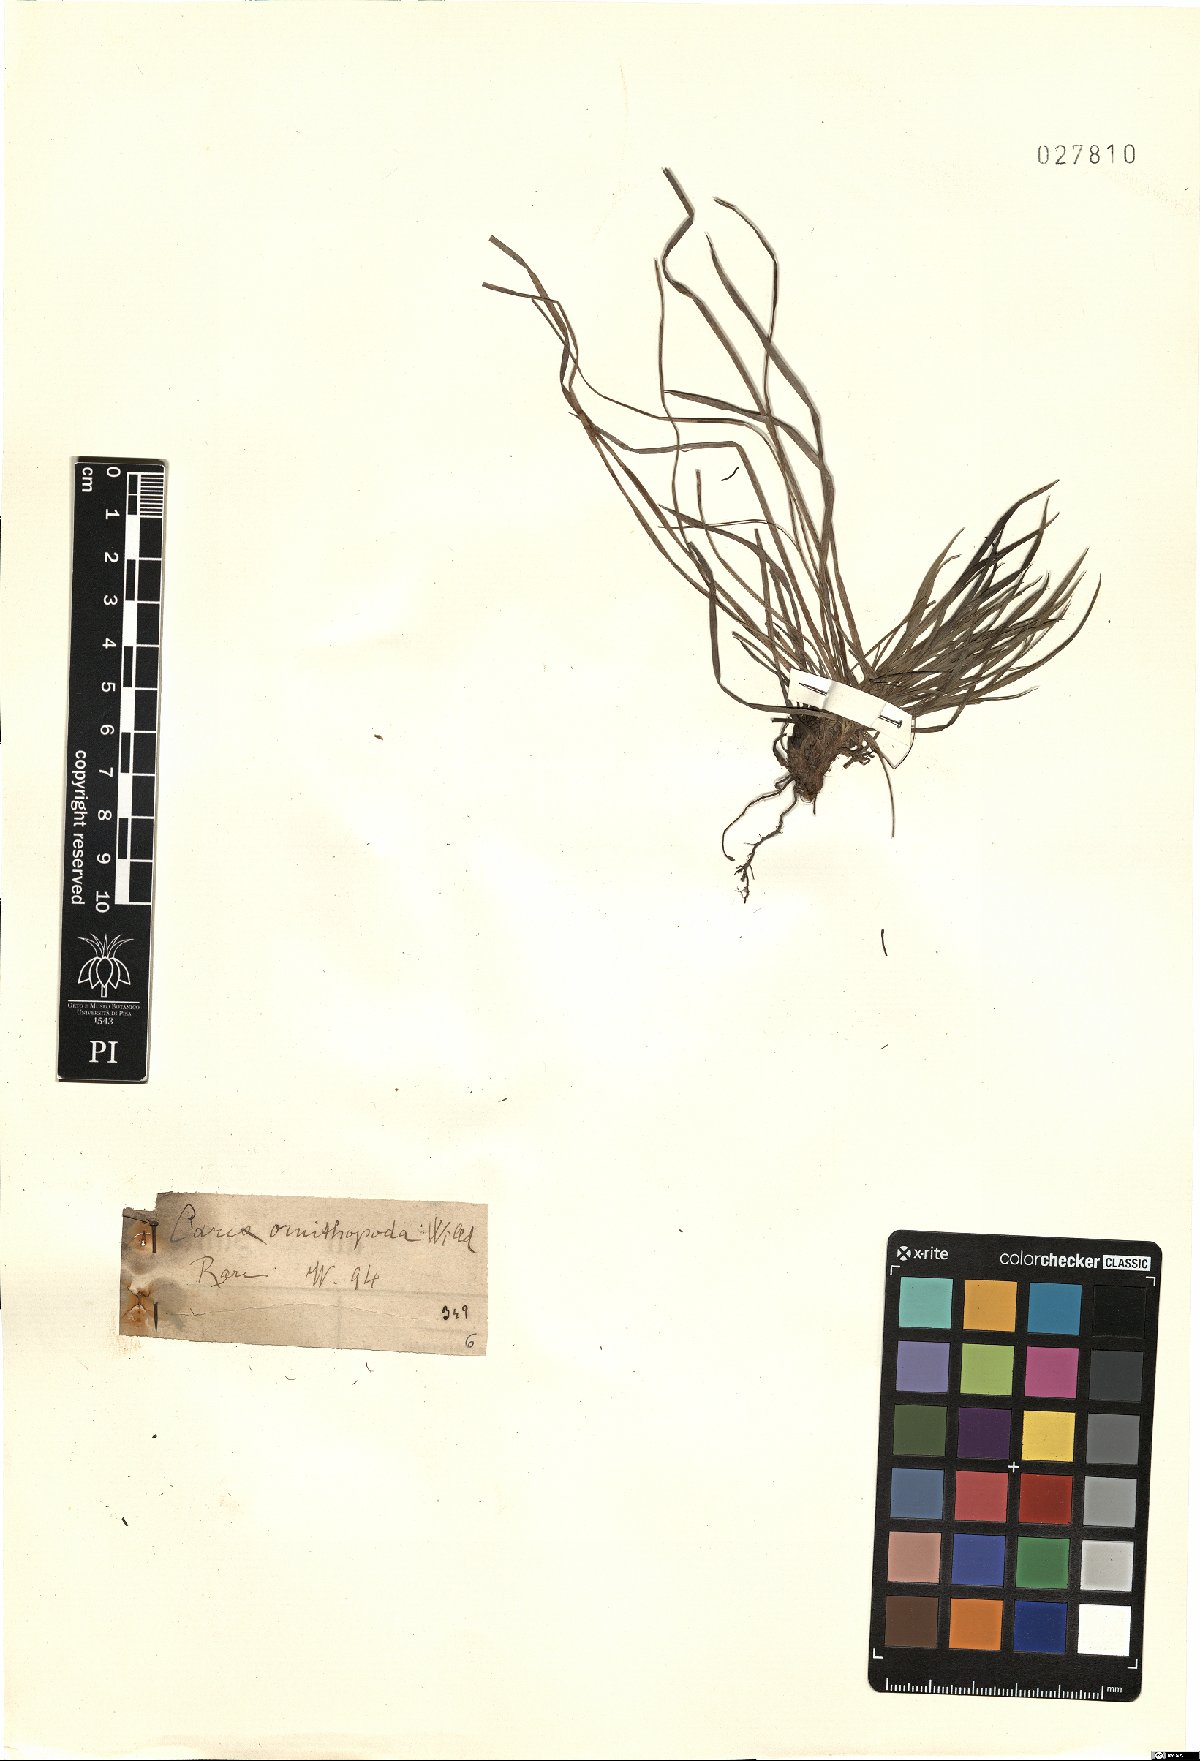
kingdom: Plantae
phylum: Tracheophyta
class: Liliopsida
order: Poales
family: Cyperaceae
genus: Carex
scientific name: Carex ornithopoda
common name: Bird's-foot sedge
